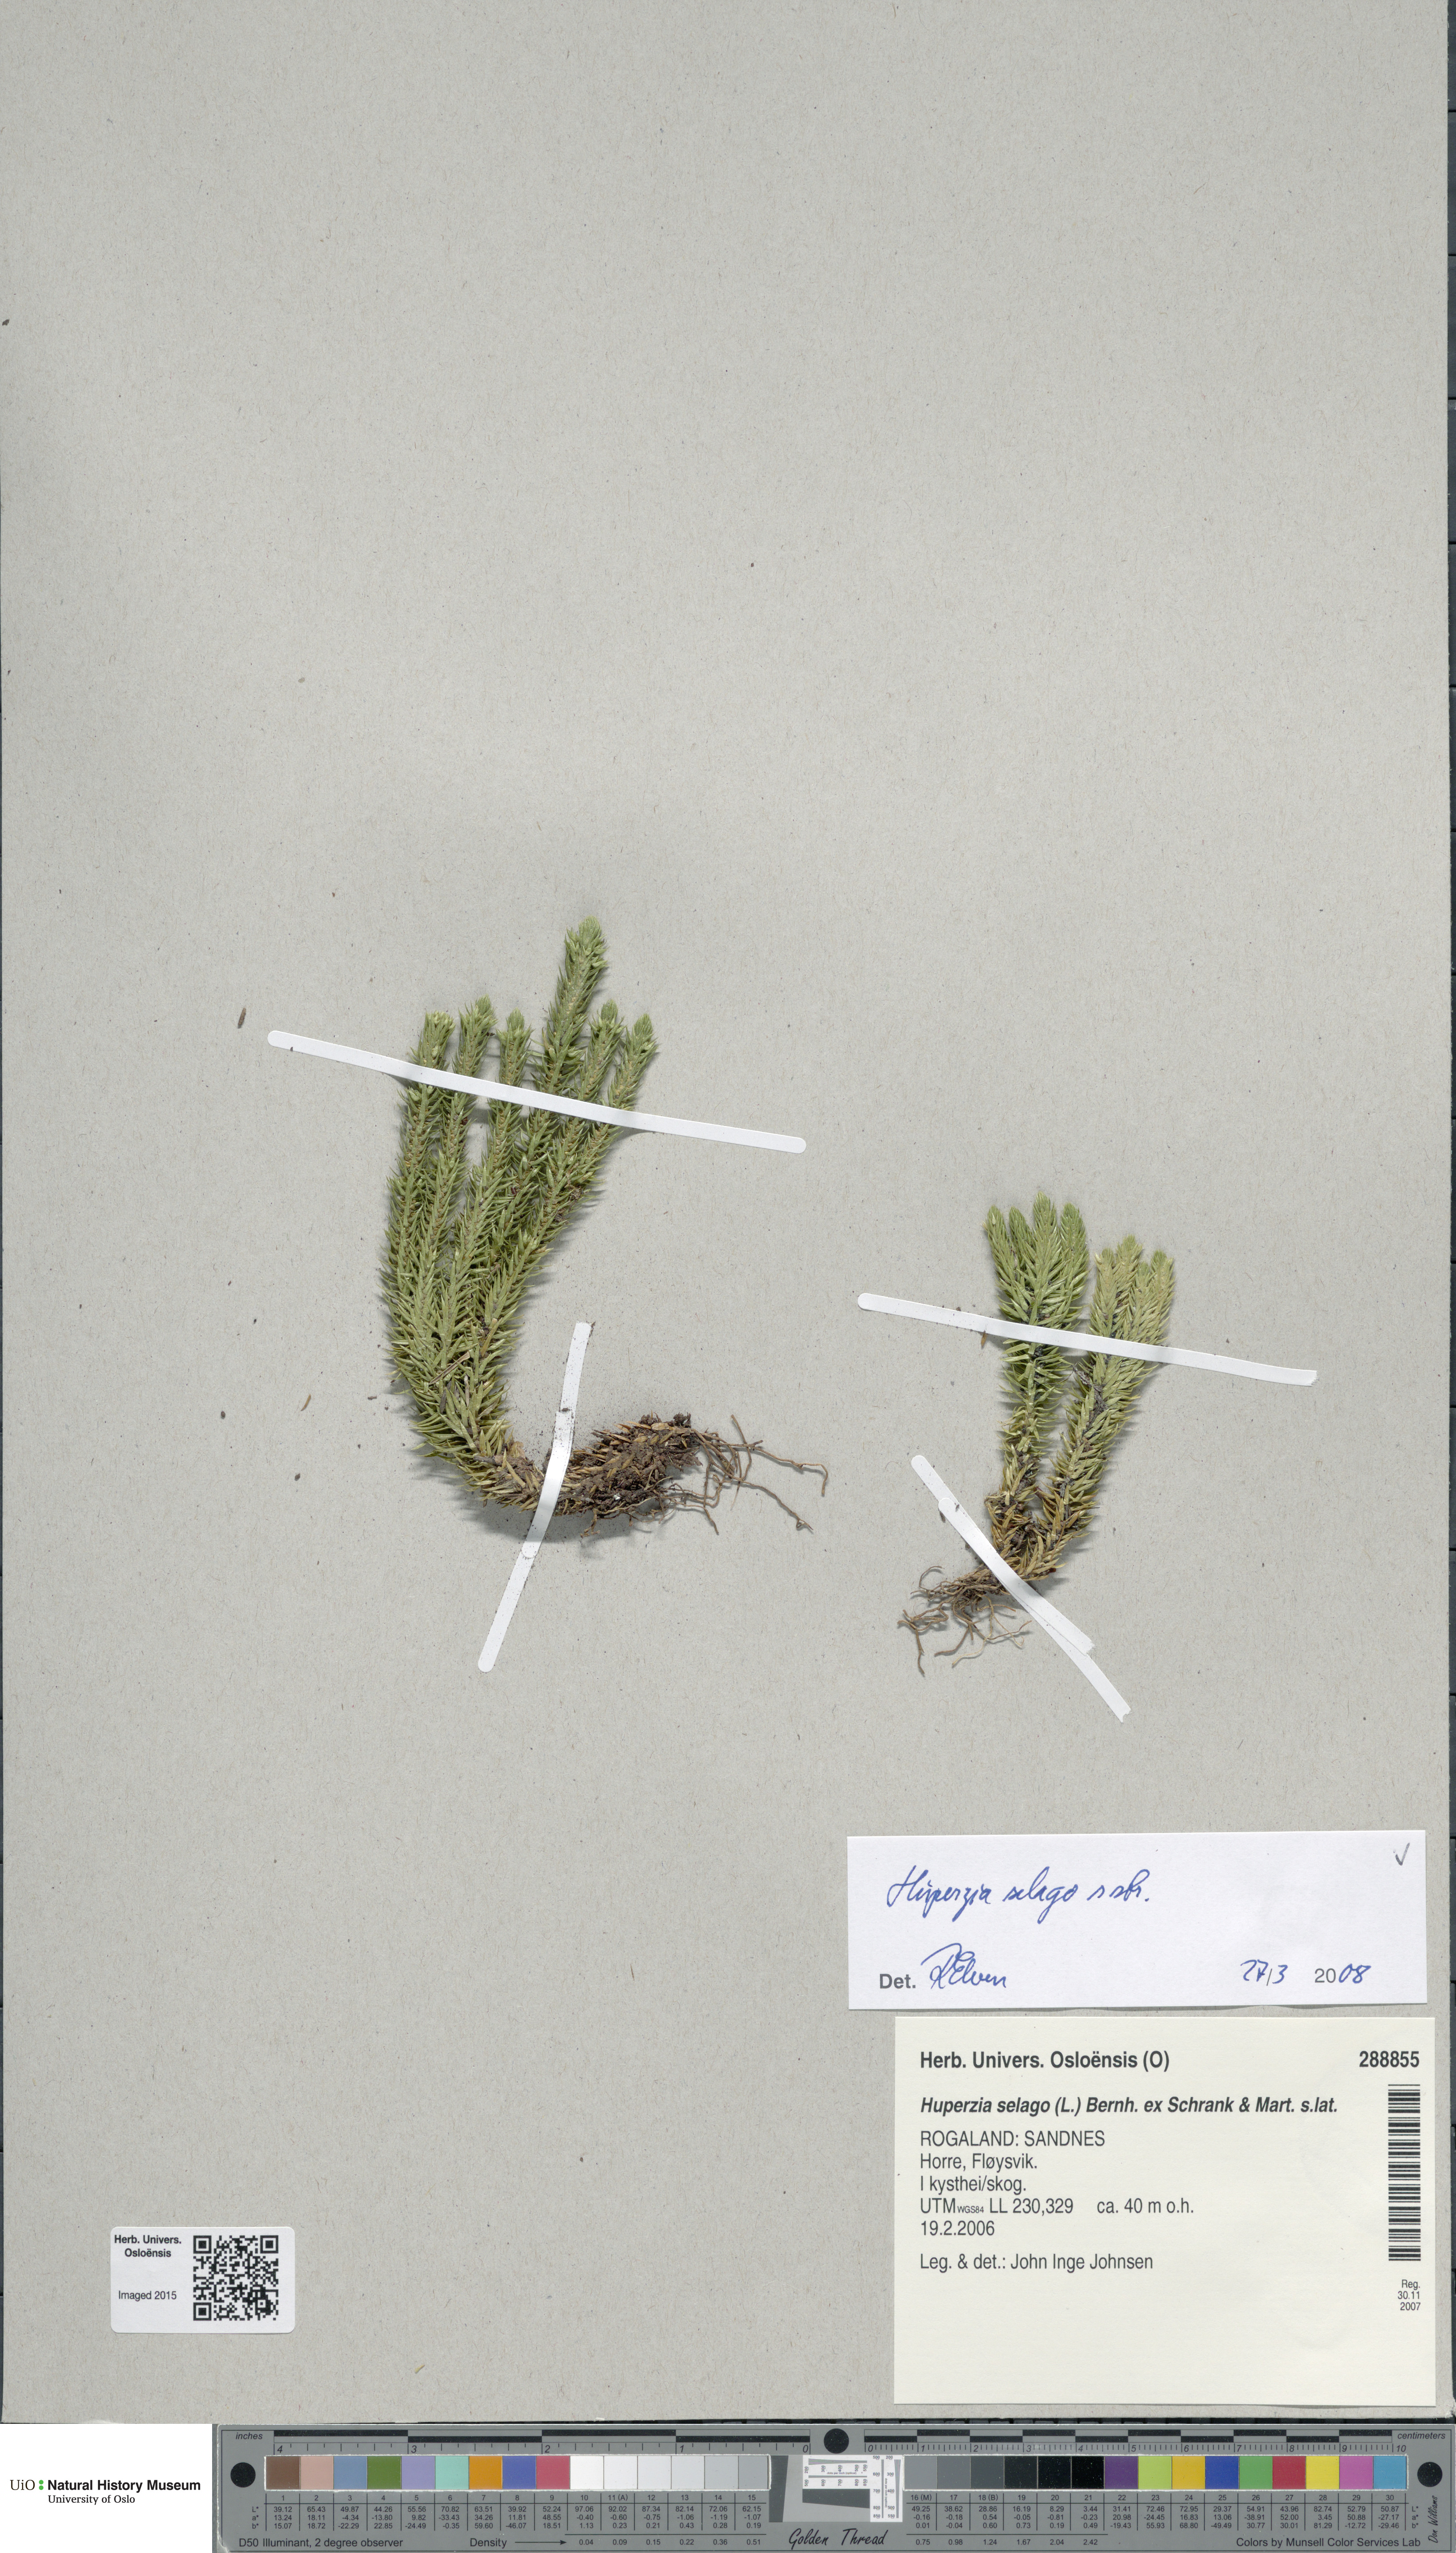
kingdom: Plantae
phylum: Tracheophyta
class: Lycopodiopsida
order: Lycopodiales
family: Lycopodiaceae
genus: Huperzia
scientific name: Huperzia selago
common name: Northern firmoss
